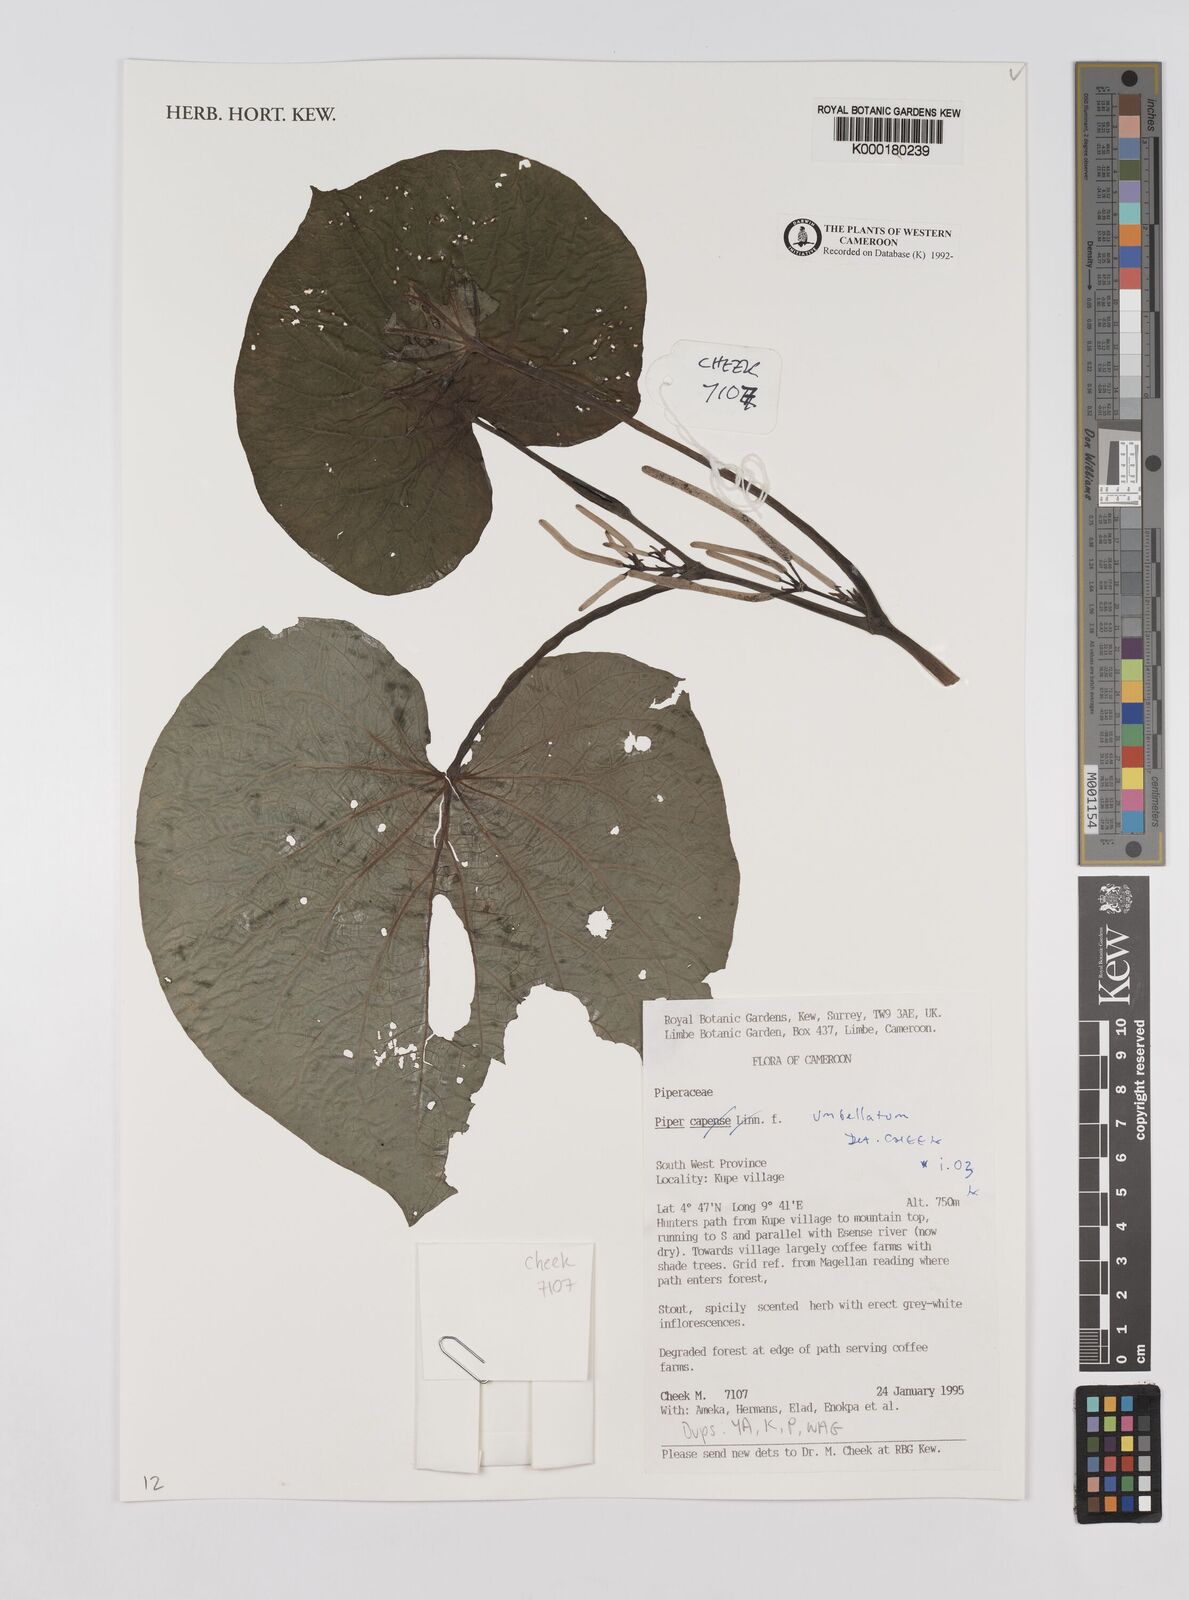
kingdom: Plantae
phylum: Tracheophyta
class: Magnoliopsida
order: Piperales
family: Piperaceae
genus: Piper
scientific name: Piper capense
